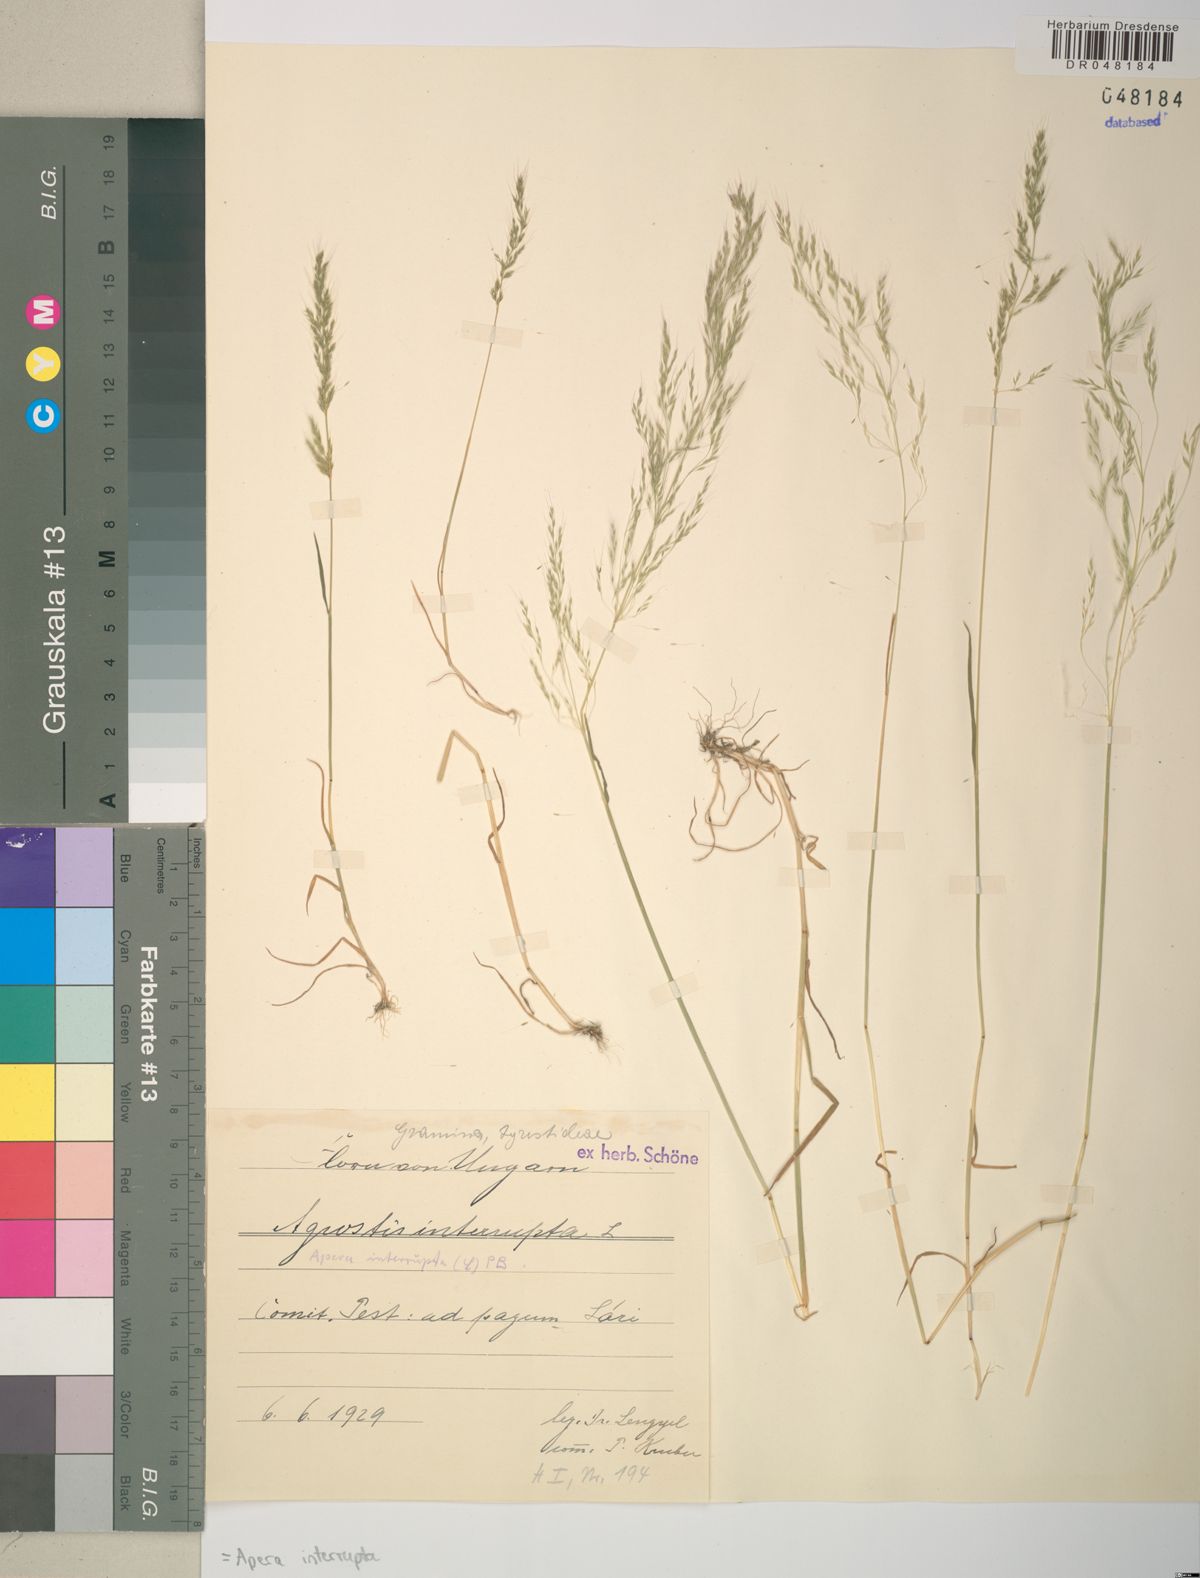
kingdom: Plantae
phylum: Tracheophyta
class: Liliopsida
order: Poales
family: Poaceae
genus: Apera
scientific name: Apera interrupta
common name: Dense silky-bent
